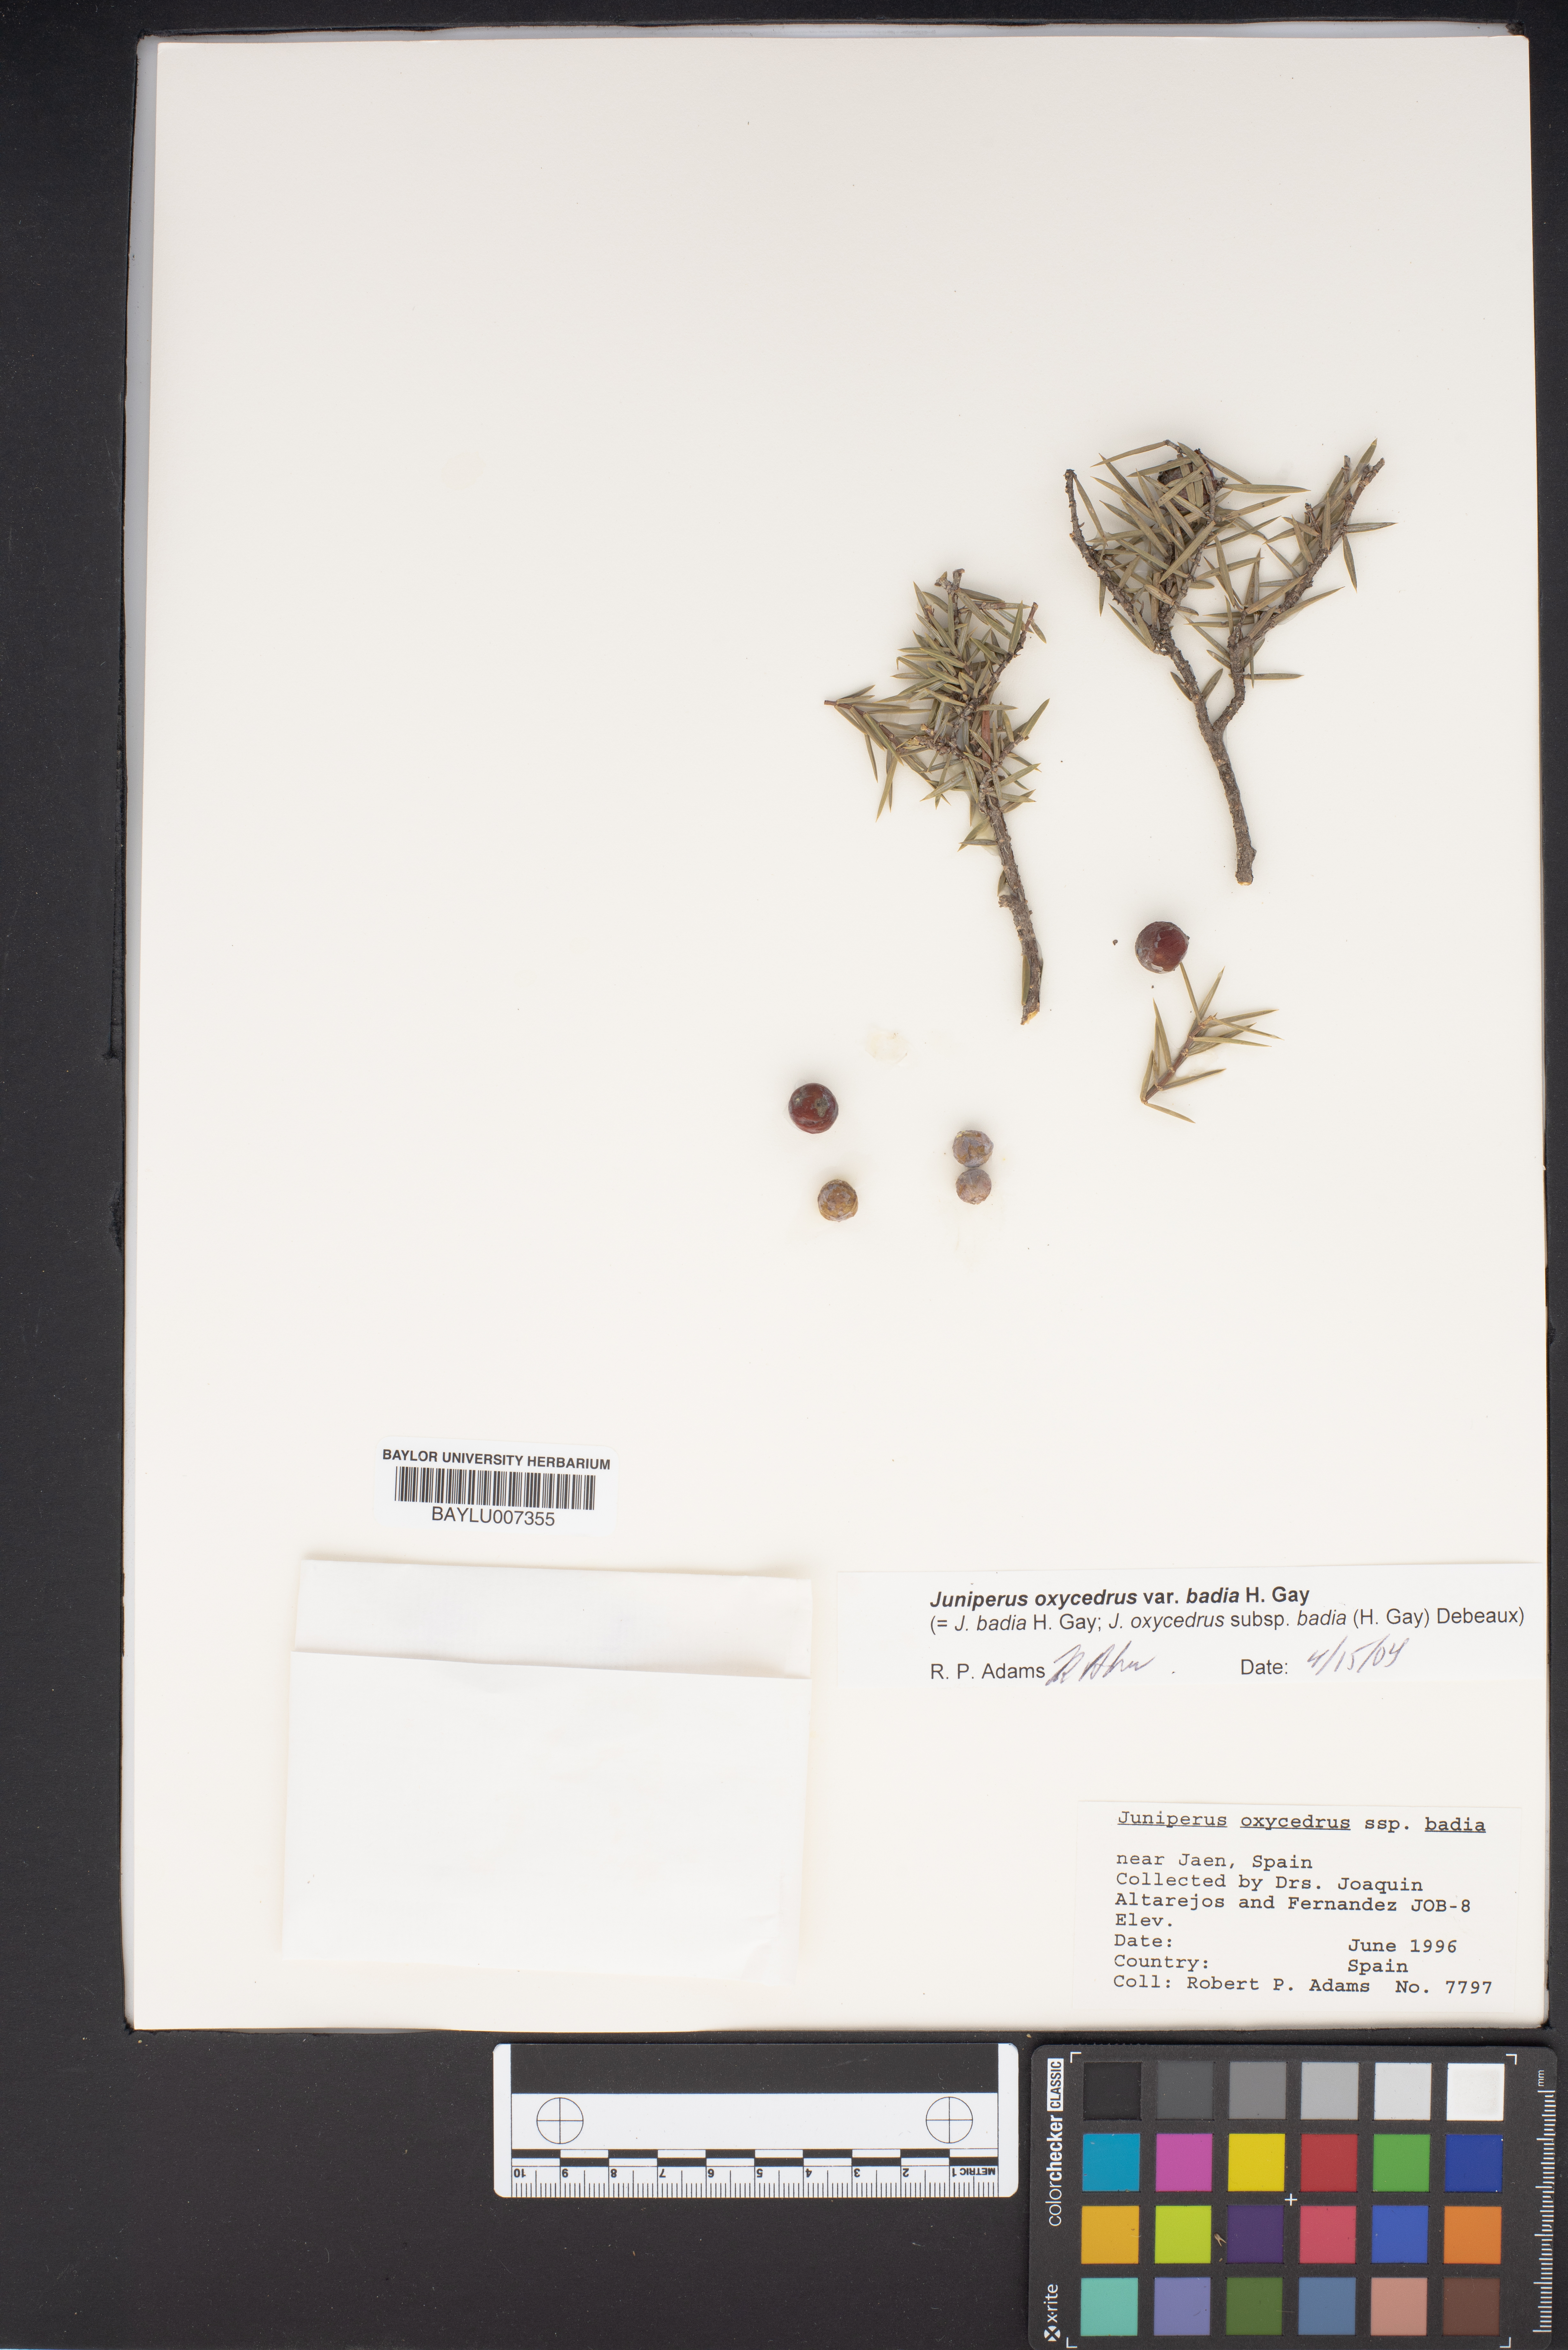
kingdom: Plantae
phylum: Tracheophyta
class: Pinopsida
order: Pinales
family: Cupressaceae
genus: Juniperus
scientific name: Juniperus oxycedrus
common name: Prickly juniper
